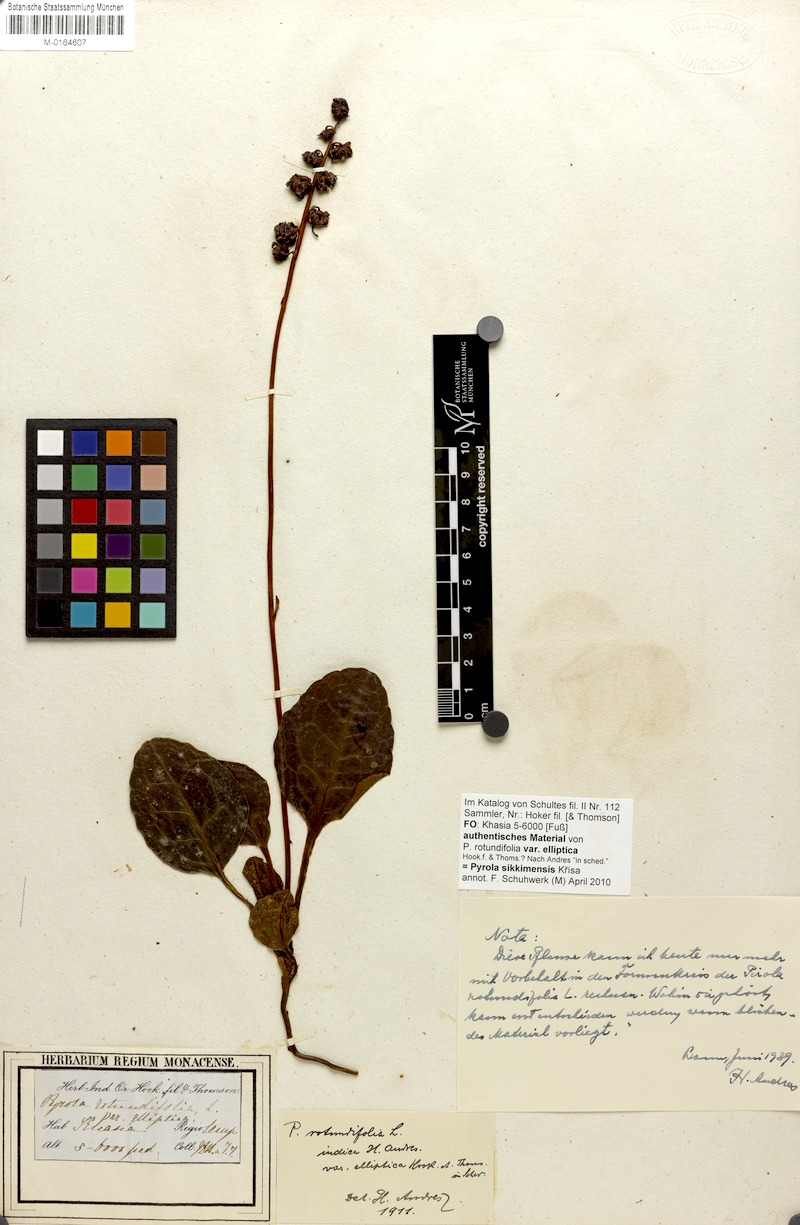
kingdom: Plantae
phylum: Tracheophyta
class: Magnoliopsida
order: Ericales
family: Ericaceae
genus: Pyrola
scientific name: Pyrola asarifolia
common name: Bog wintergreen
